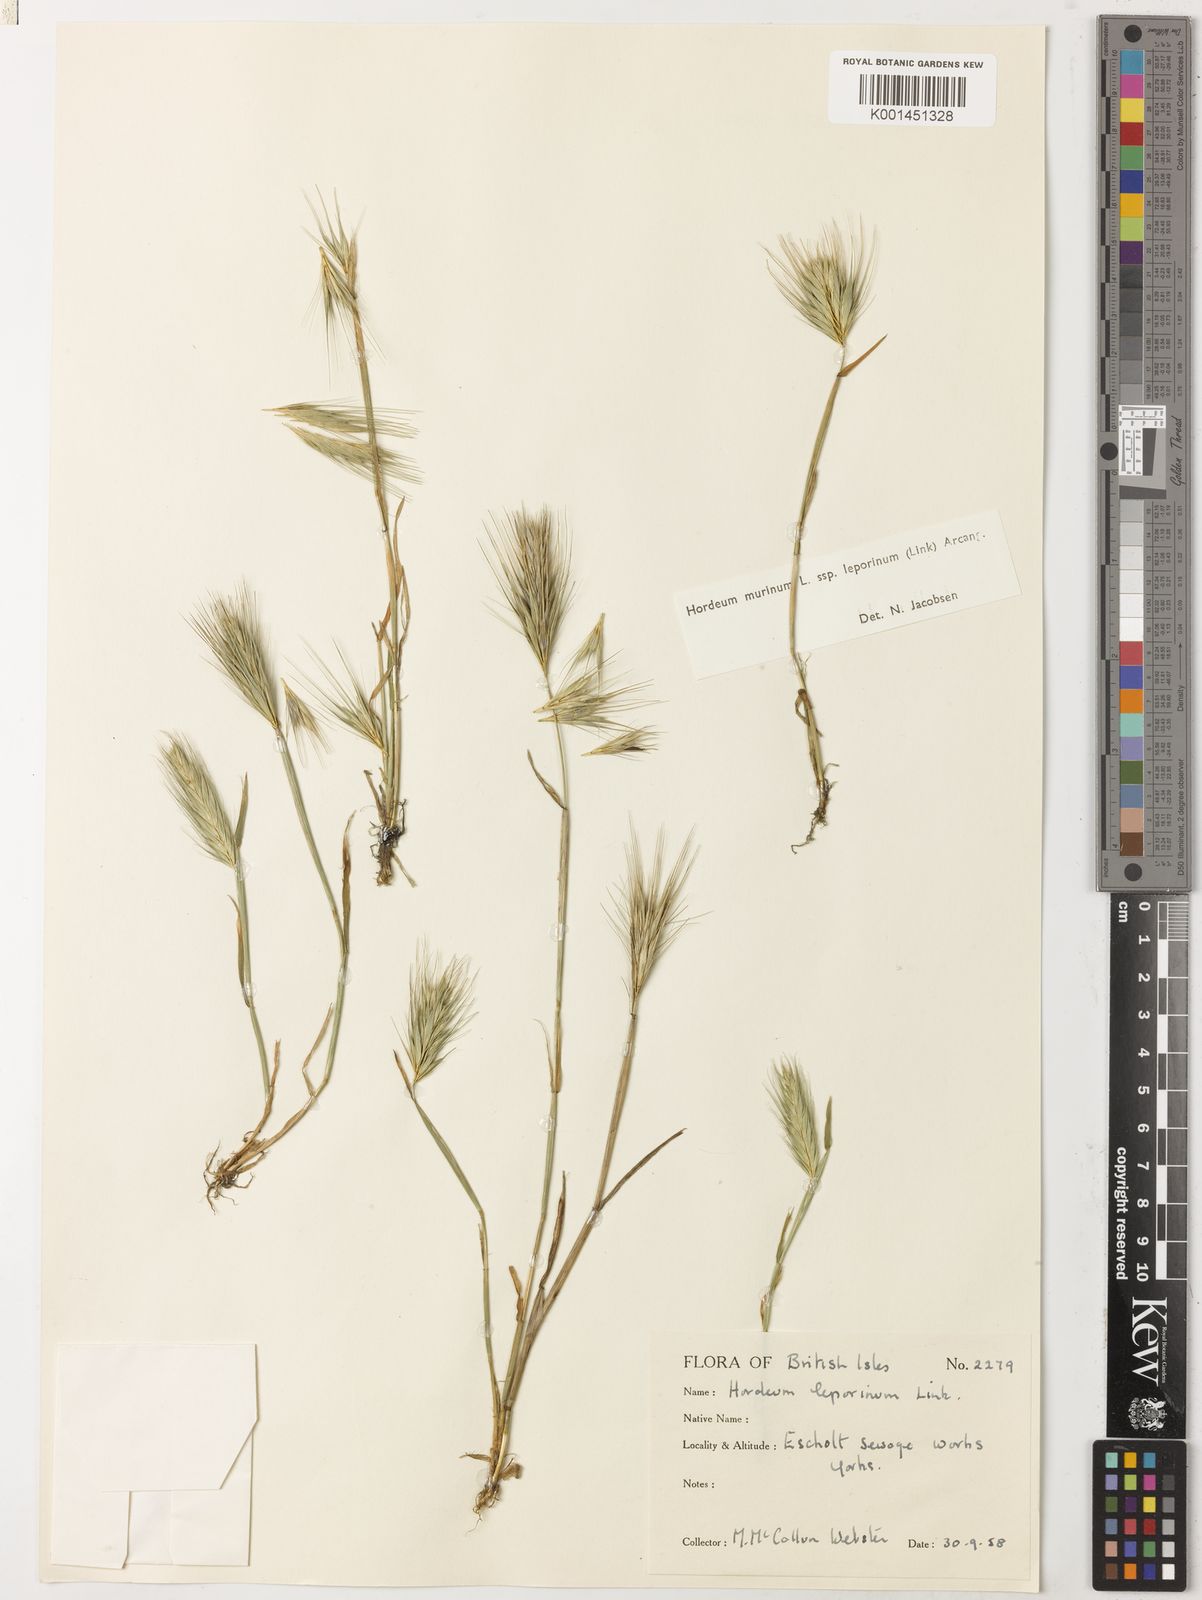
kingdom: Plantae
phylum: Tracheophyta
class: Liliopsida
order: Poales
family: Poaceae
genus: Hordeum
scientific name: Hordeum murinum
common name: Wall barley
